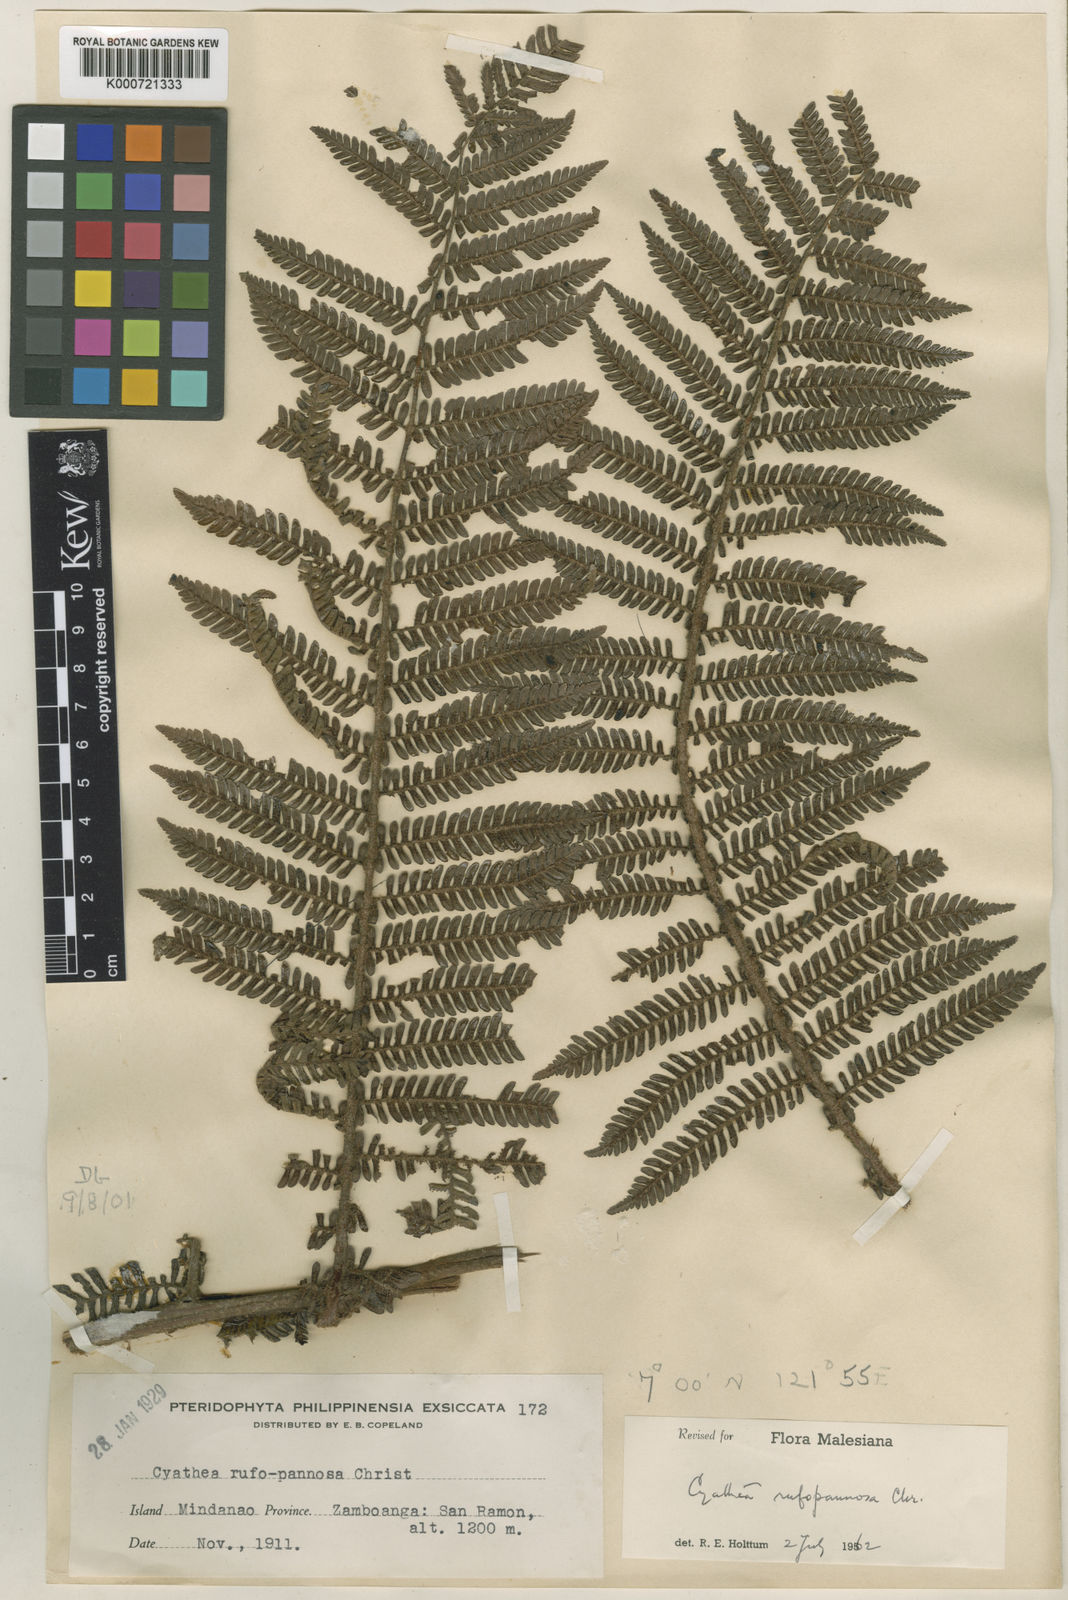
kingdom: Plantae
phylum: Tracheophyta
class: Polypodiopsida
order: Cyatheales
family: Cyatheaceae
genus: Alsophila
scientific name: Alsophila rufopannosa
